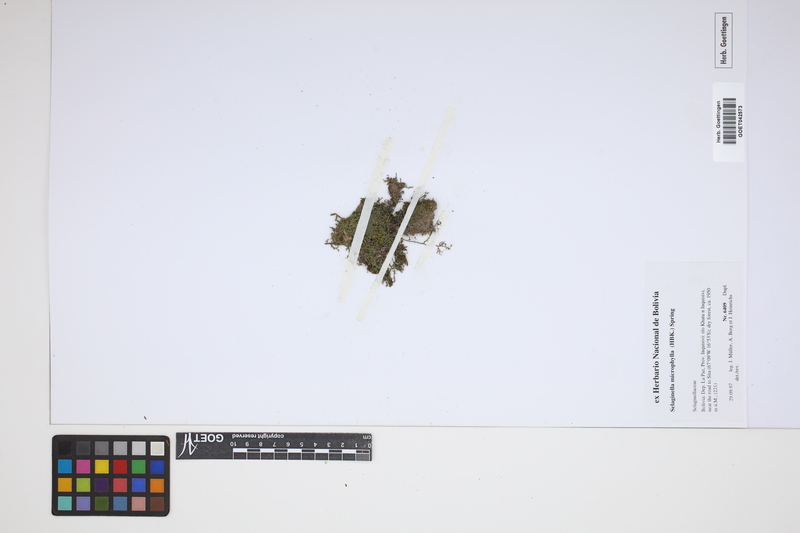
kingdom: Plantae
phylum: Tracheophyta
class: Lycopodiopsida
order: Selaginellales
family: Selaginellaceae
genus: Selaginella
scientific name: Selaginella microphylla
